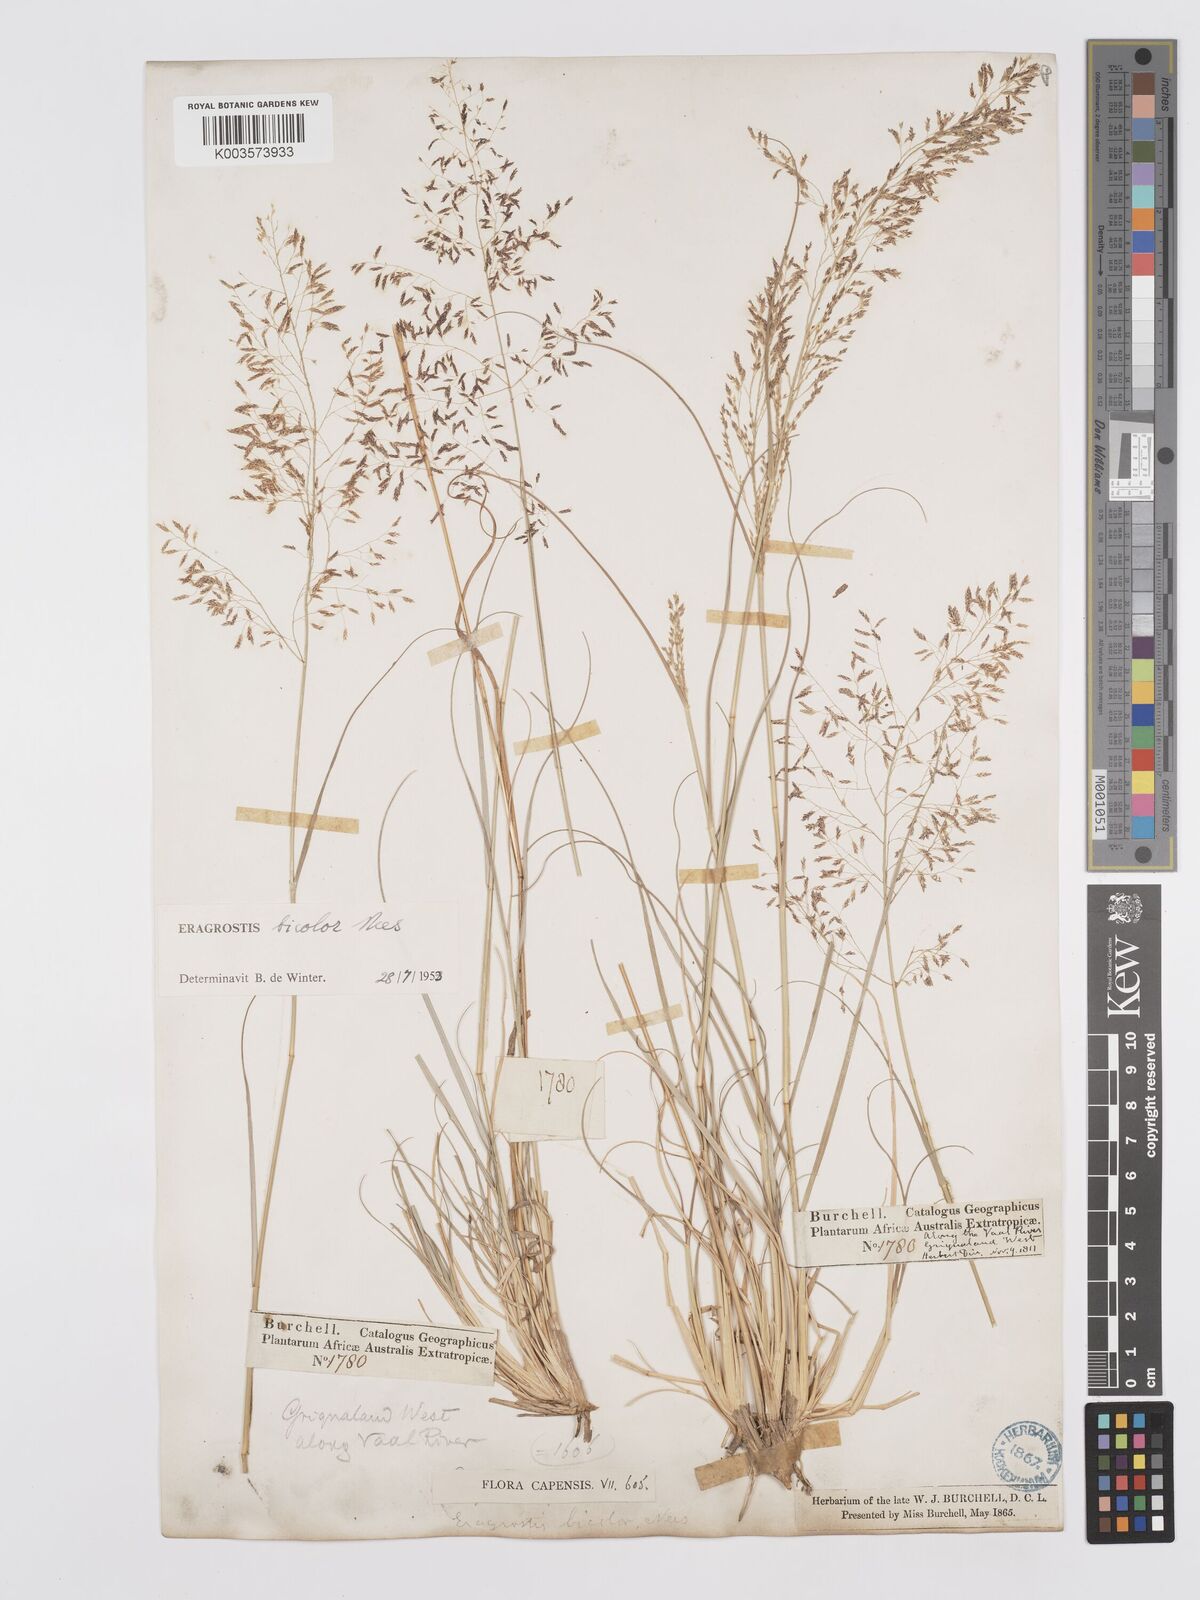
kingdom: Plantae
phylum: Tracheophyta
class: Liliopsida
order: Poales
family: Poaceae
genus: Eragrostis
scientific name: Eragrostis
